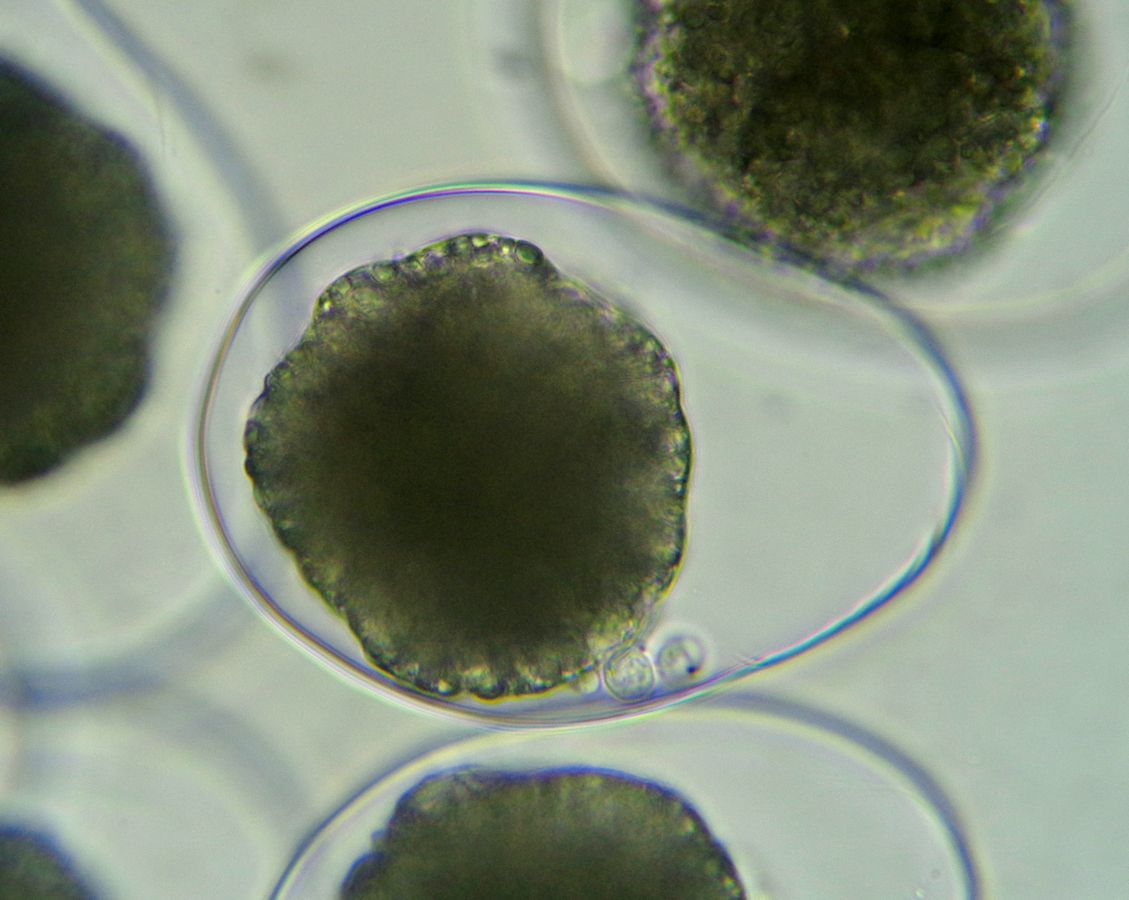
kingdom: Animalia
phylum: Mollusca
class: Gastropoda
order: Nudibranchia
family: Eubranchidae
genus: Eubranchus
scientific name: Eubranchus rupium
